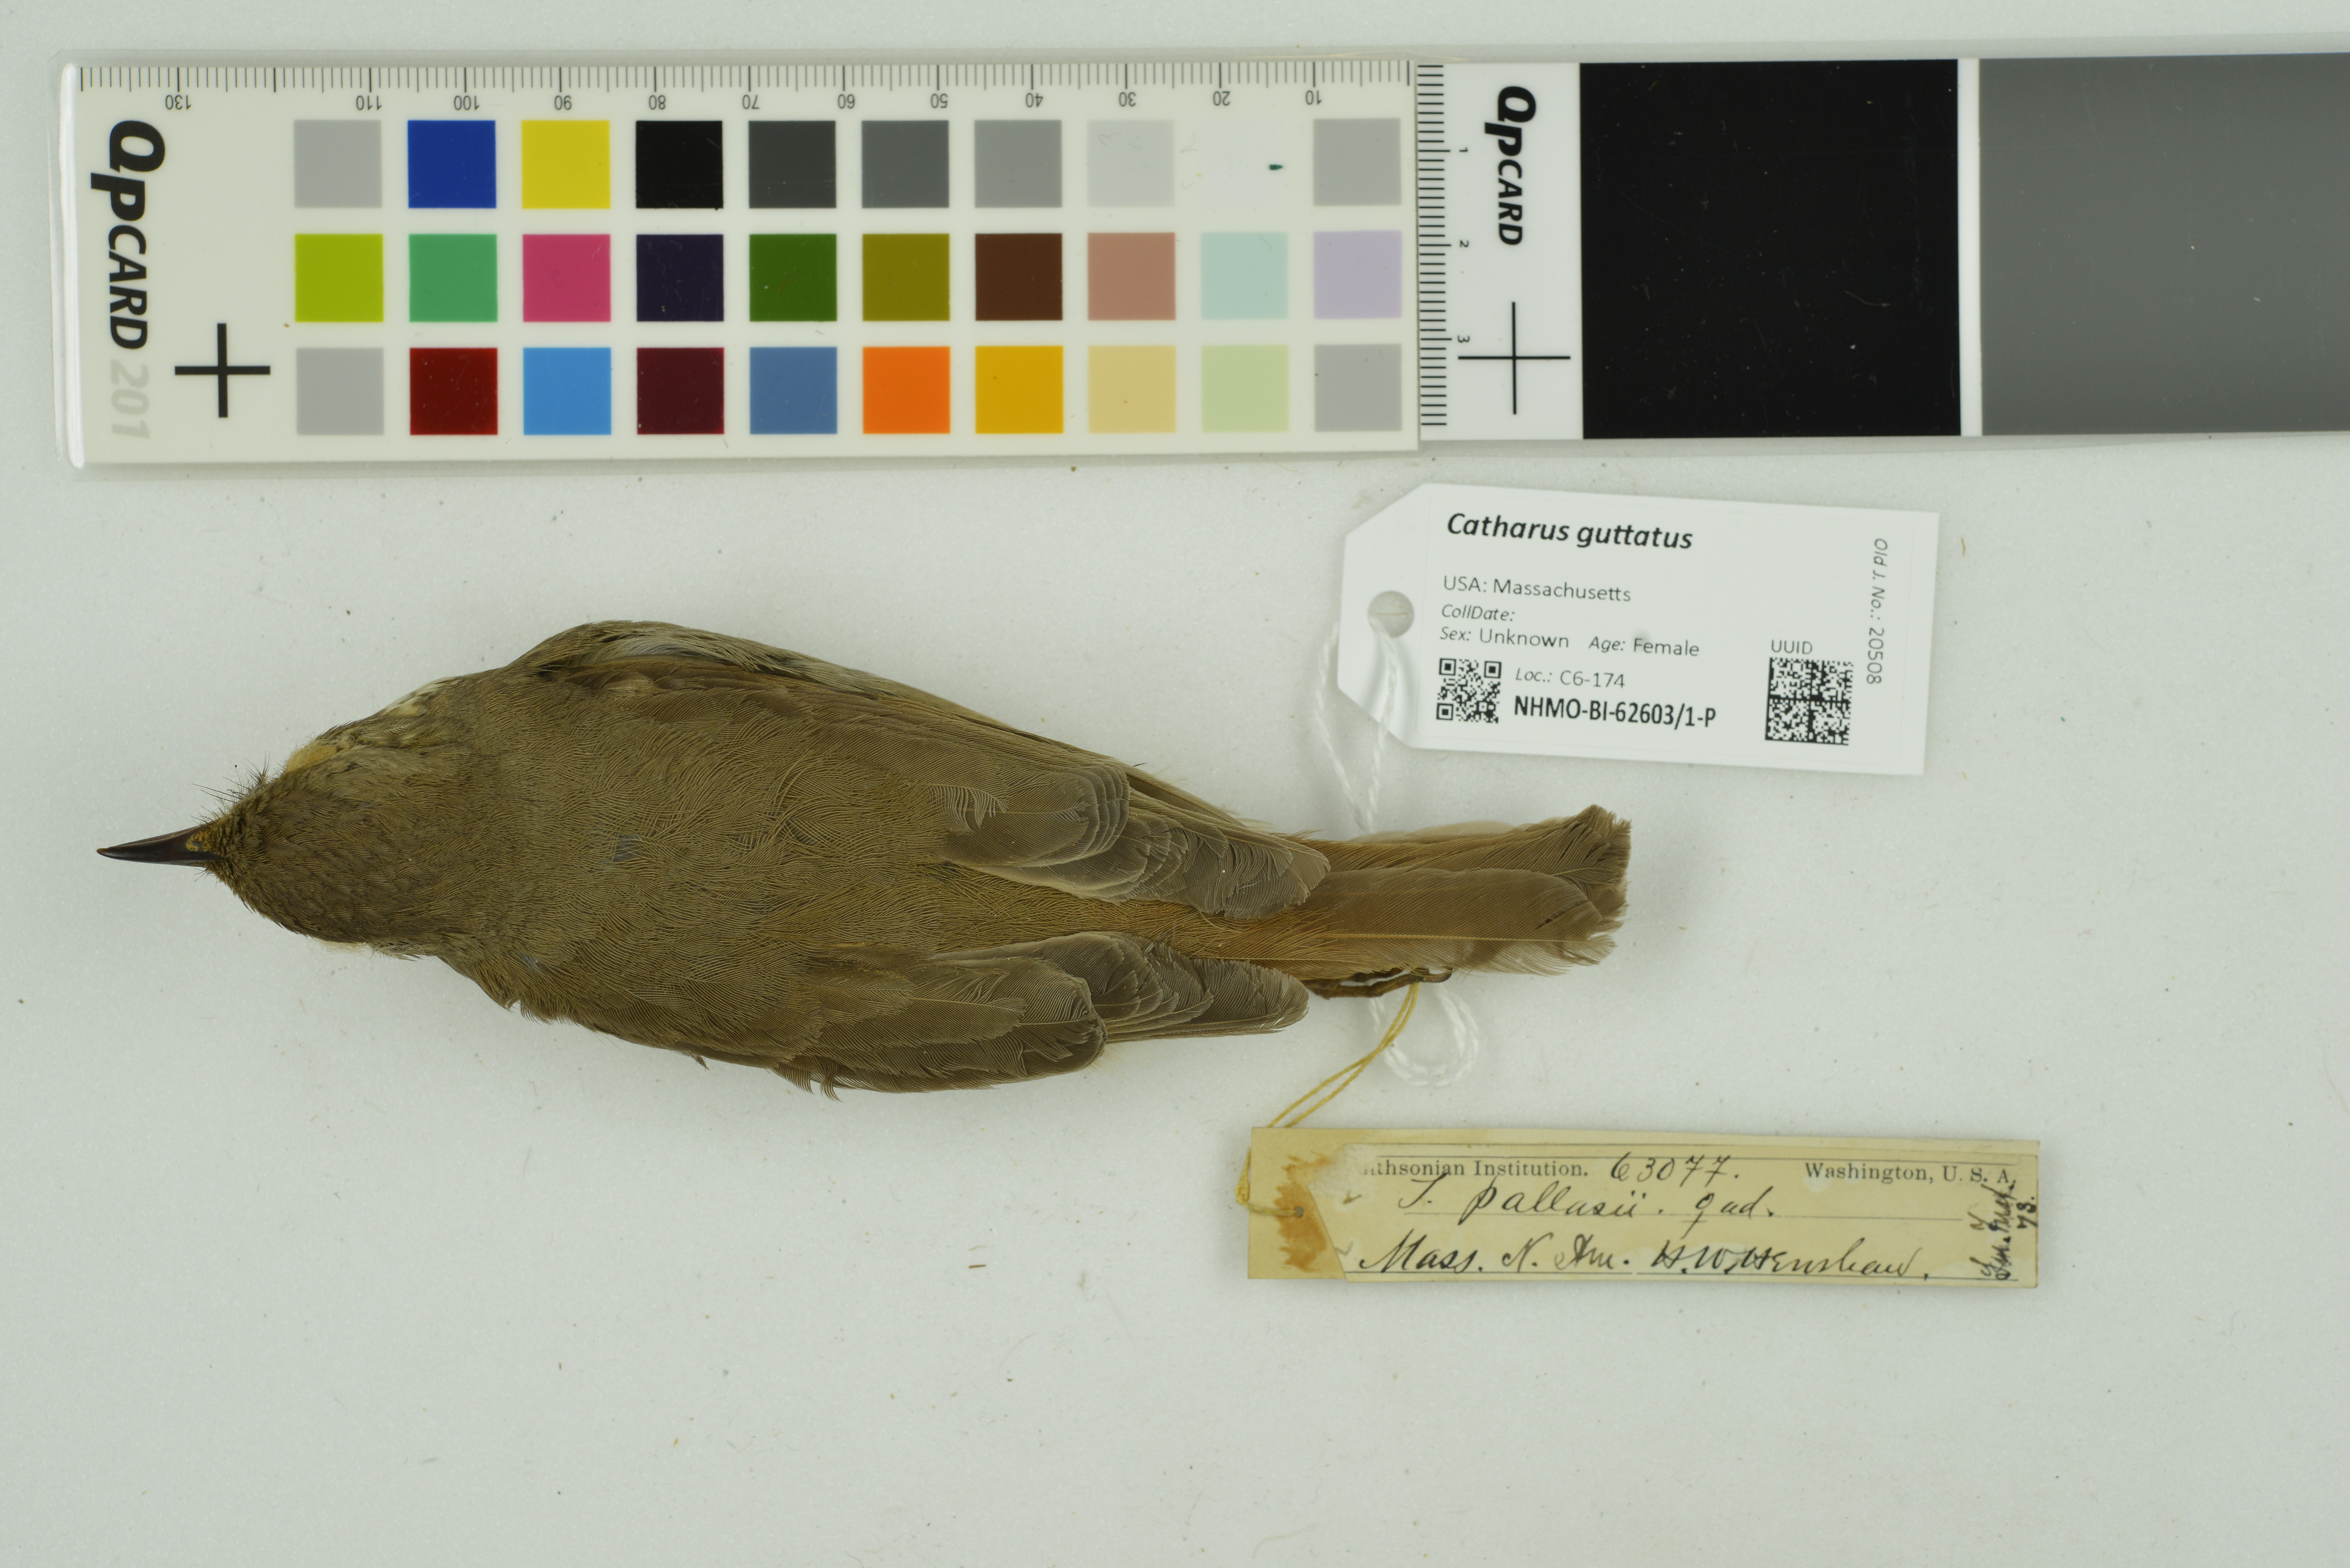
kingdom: Animalia
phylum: Chordata
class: Aves
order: Passeriformes
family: Turdidae
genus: Catharus
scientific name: Catharus guttatus
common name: Hermit thrush
